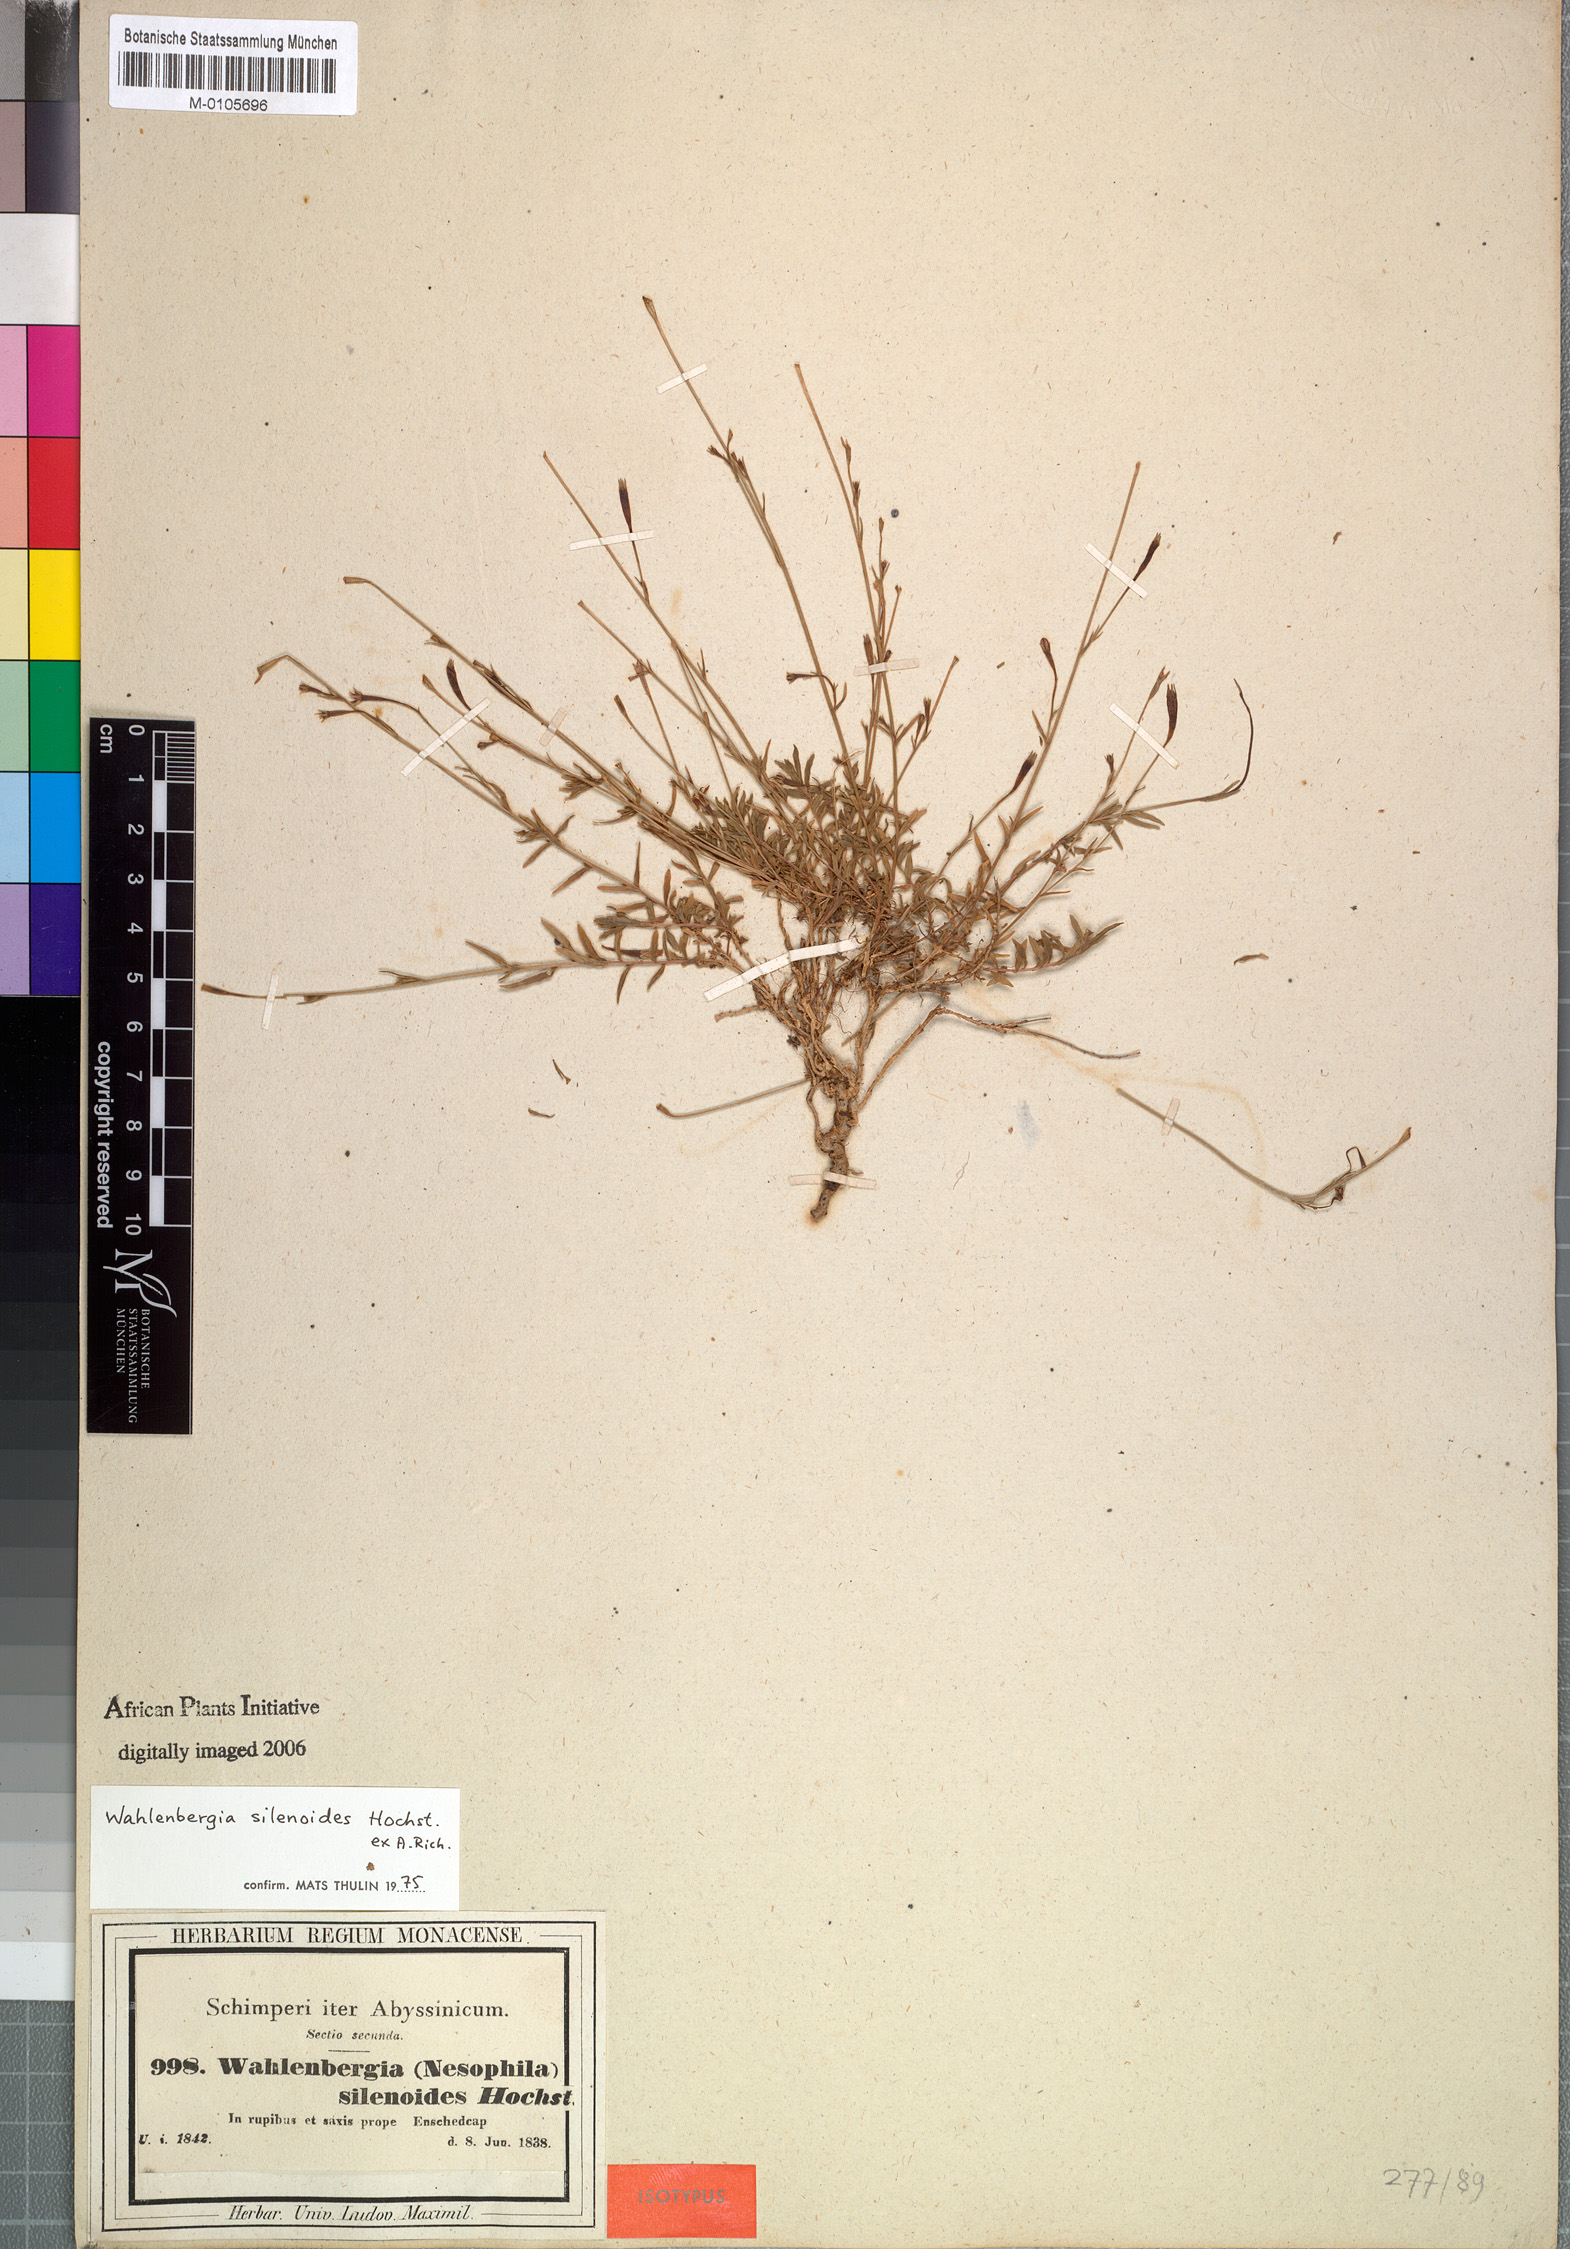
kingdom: Plantae
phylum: Tracheophyta
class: Magnoliopsida
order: Asterales
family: Campanulaceae
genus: Wahlenbergia
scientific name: Wahlenbergia silenoides
